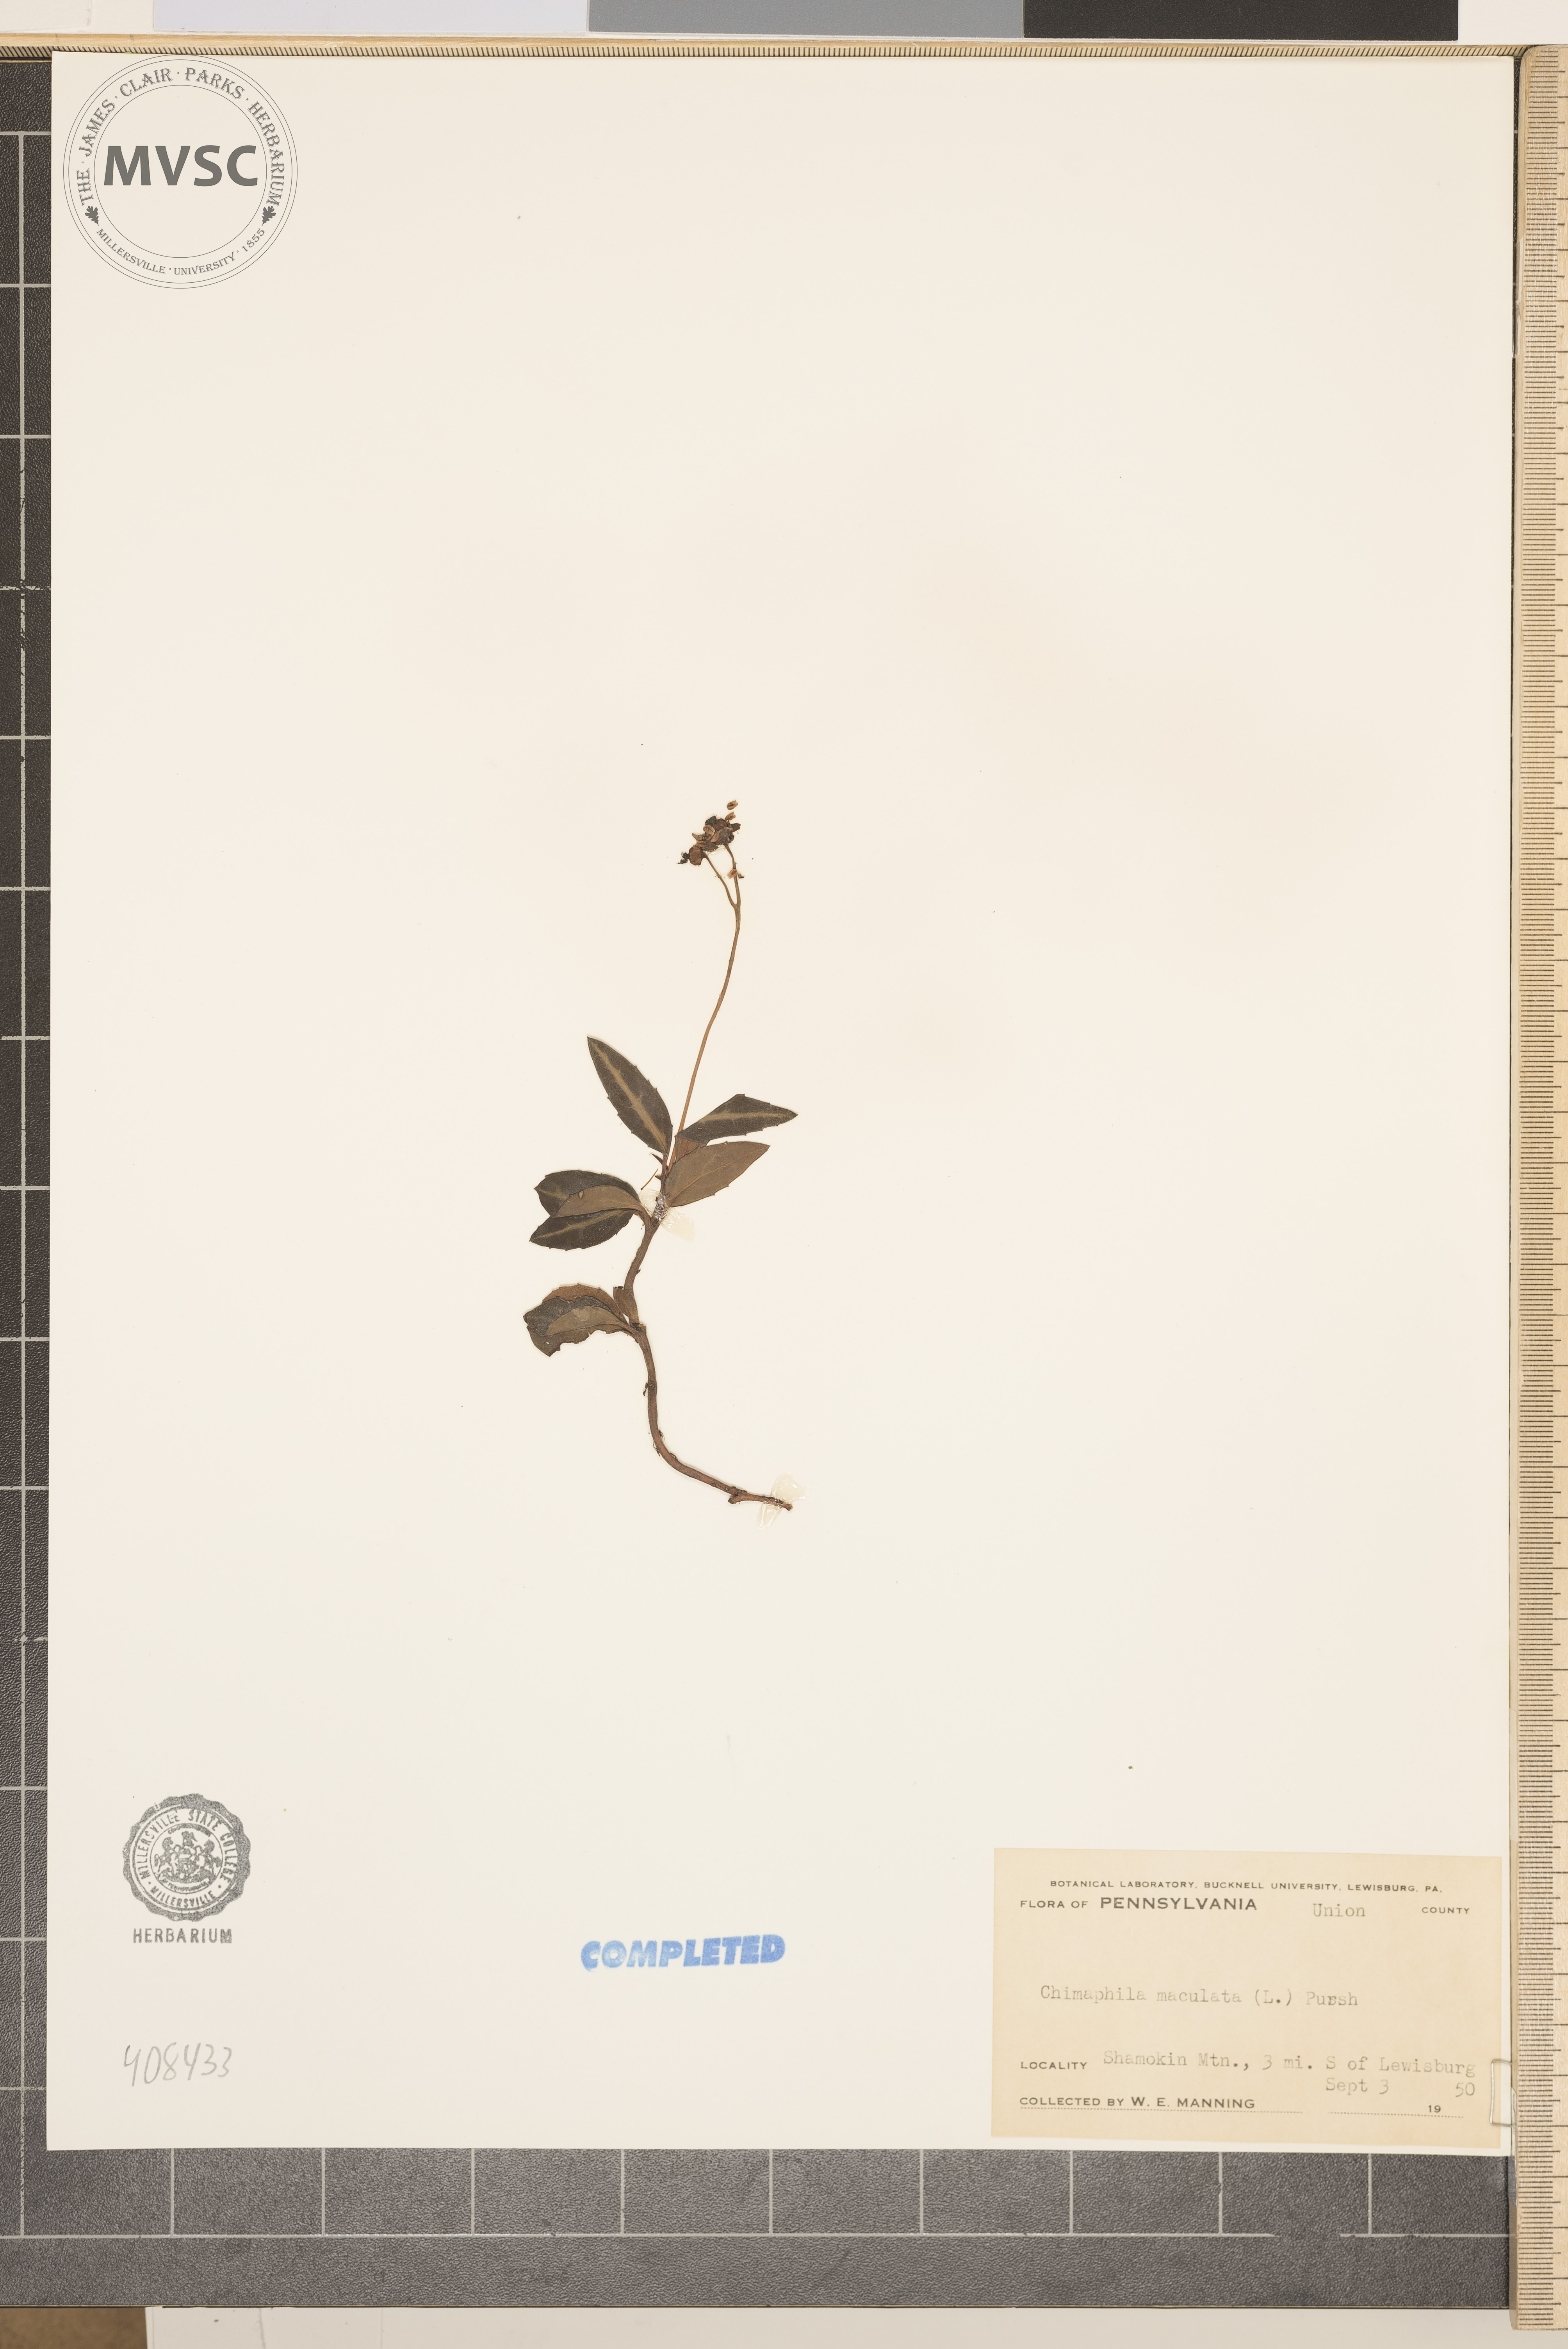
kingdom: Plantae
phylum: Tracheophyta
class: Magnoliopsida
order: Ericales
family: Ericaceae
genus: Chimaphila
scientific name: Chimaphila maculata
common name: Spotted pipsissewa
